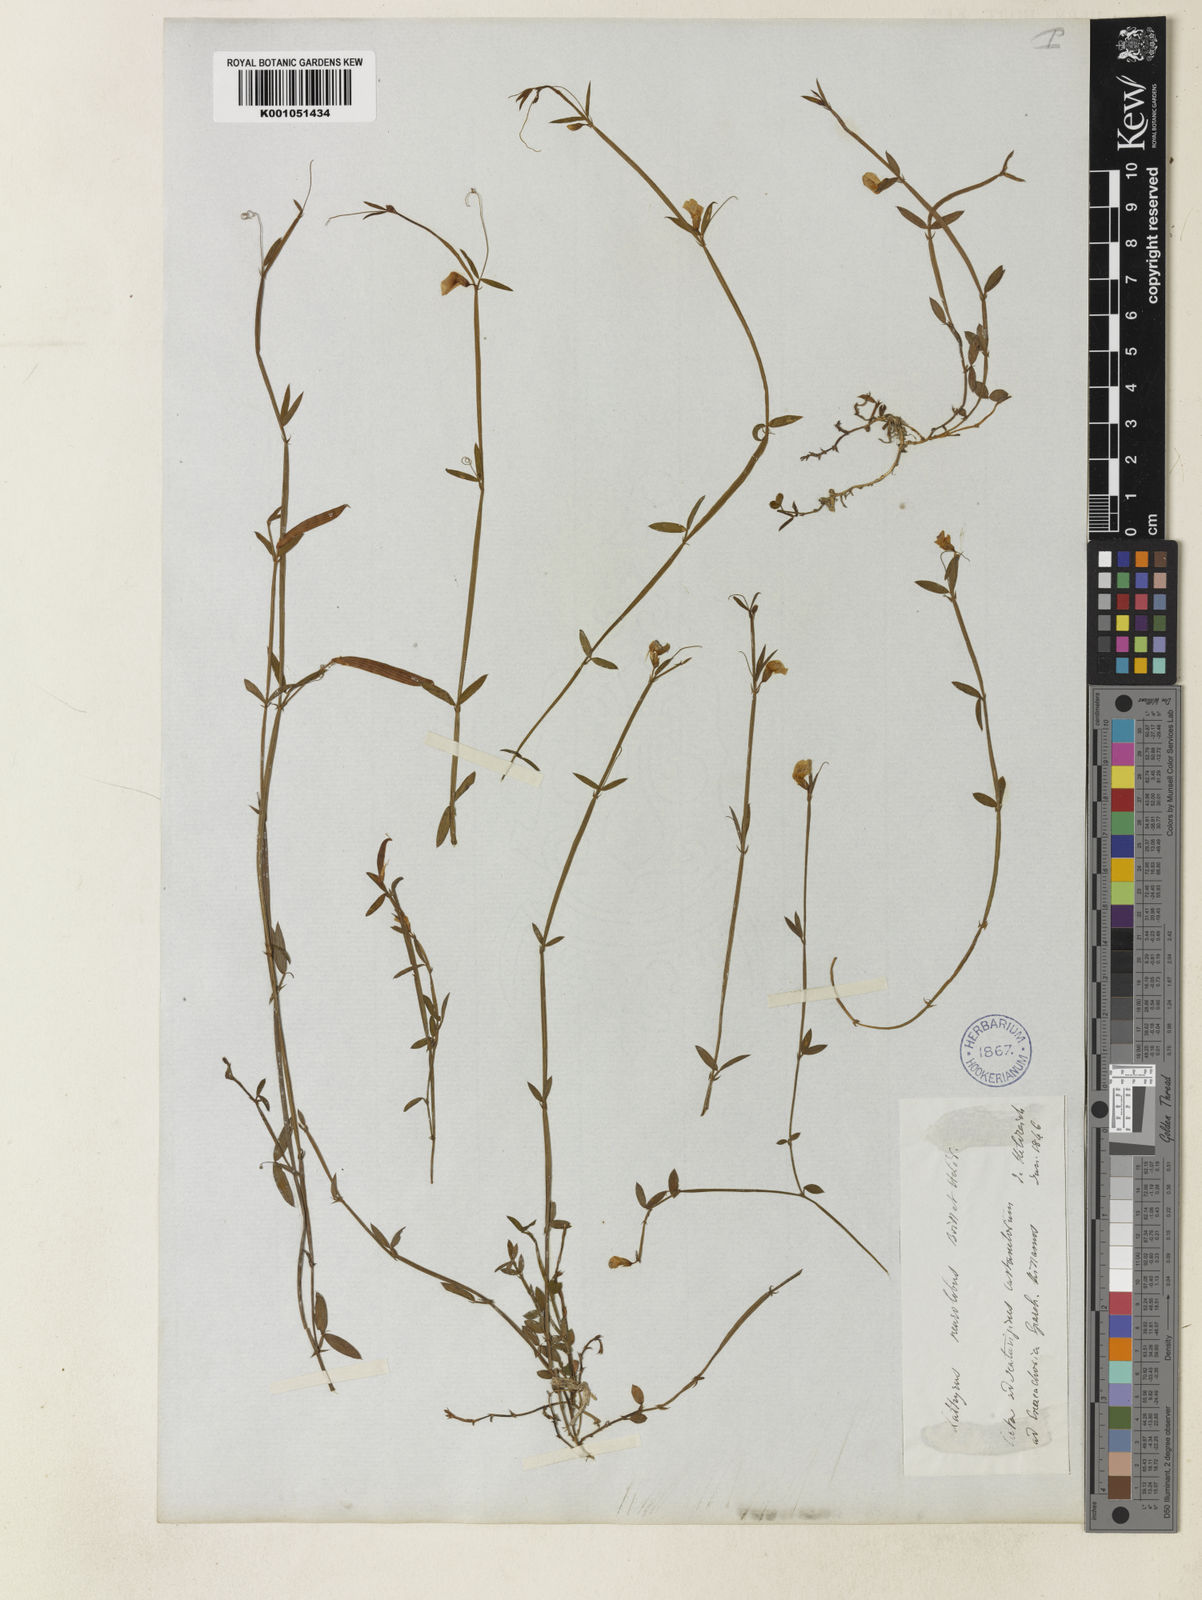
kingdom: Plantae
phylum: Tracheophyta
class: Magnoliopsida
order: Fabales
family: Fabaceae
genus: Lathyrus
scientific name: Lathyrus neurolobus
